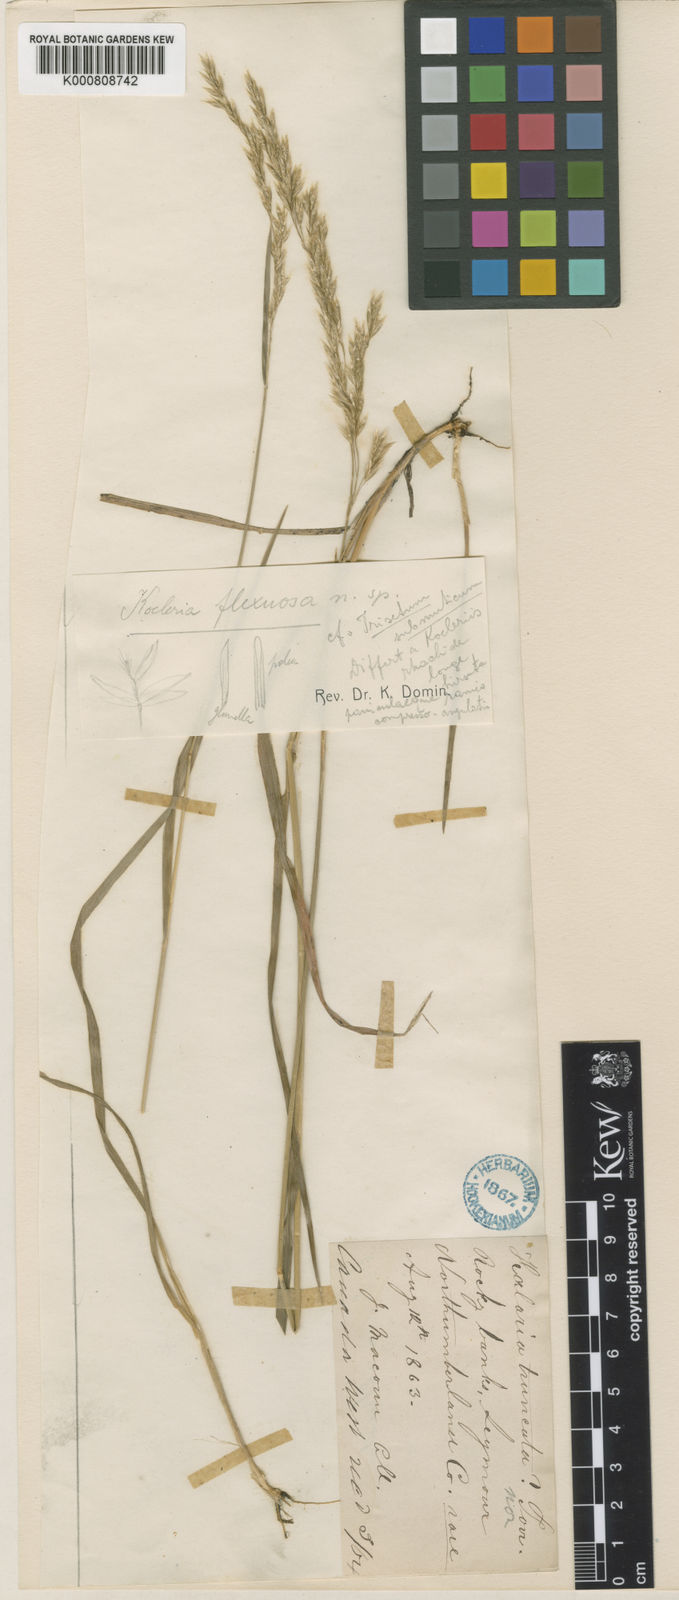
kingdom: Plantae
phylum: Tracheophyta
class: Liliopsida
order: Poales
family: Poaceae
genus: Graphephorum
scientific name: Graphephorum melicoides
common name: False melic
